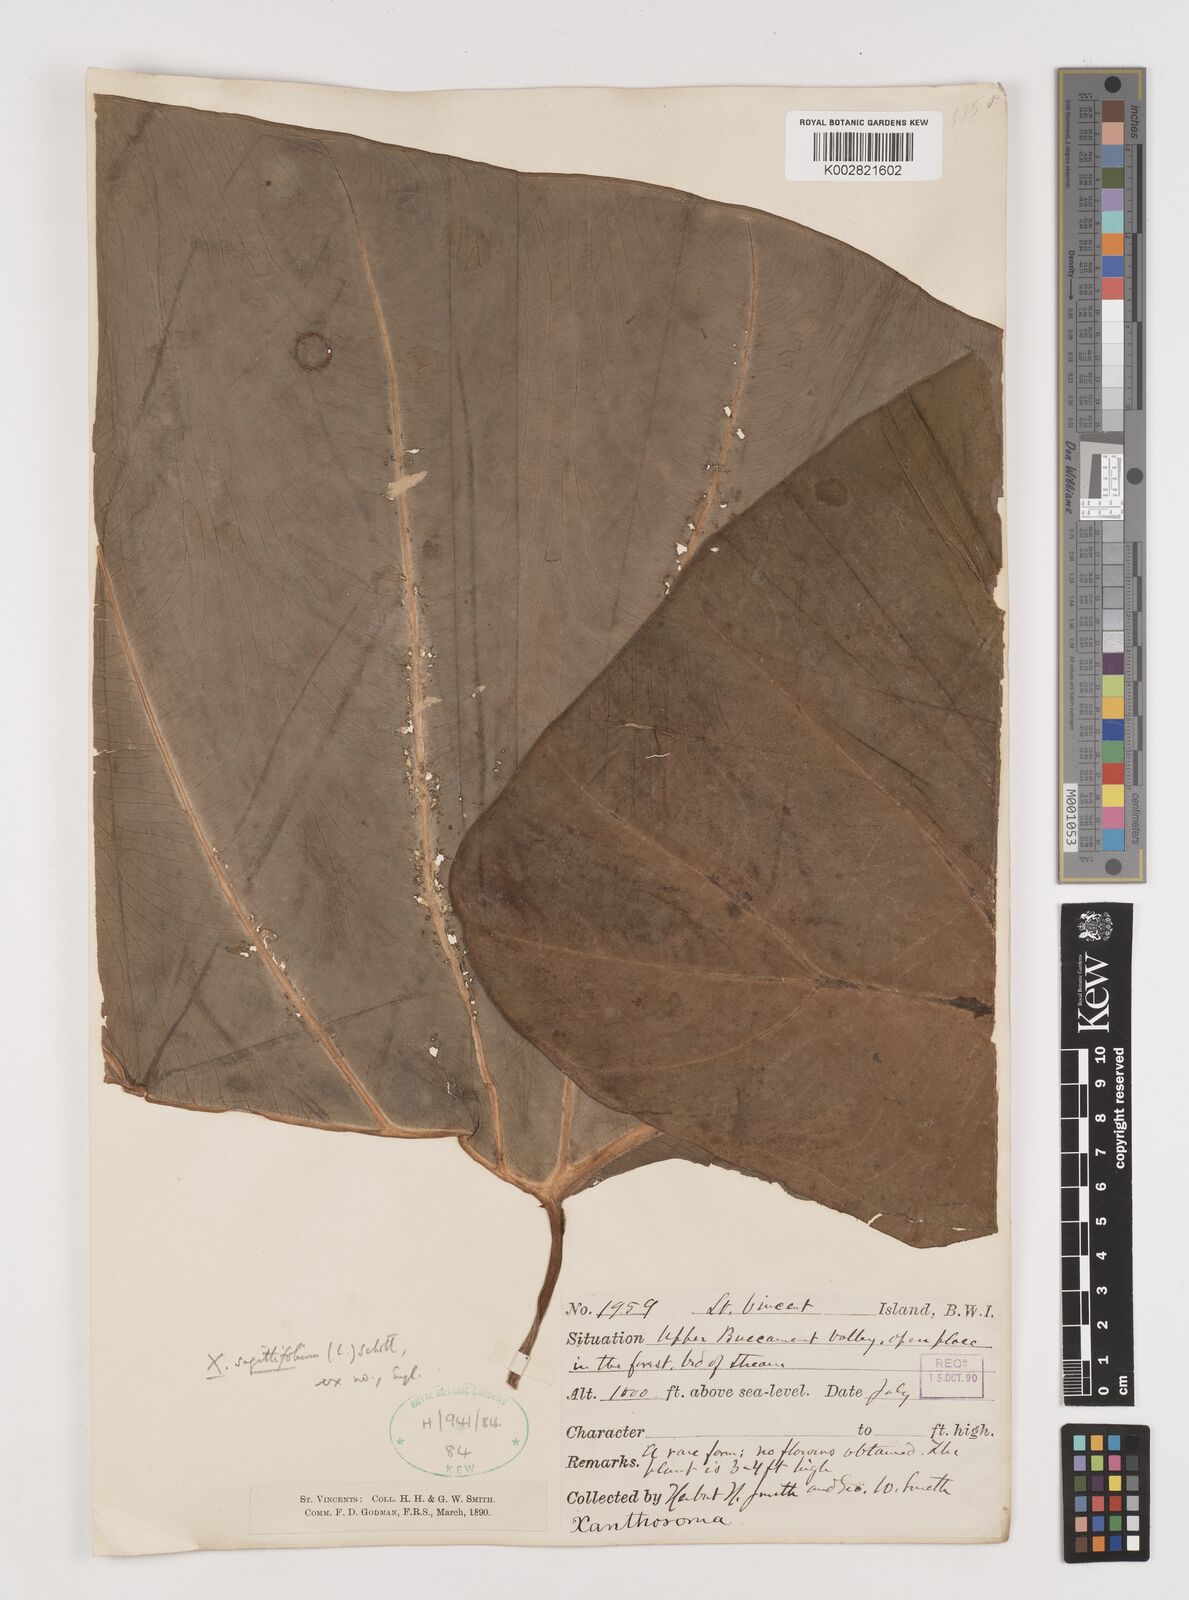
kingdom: Plantae
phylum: Tracheophyta
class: Liliopsida
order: Alismatales
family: Araceae
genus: Xanthosoma
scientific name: Xanthosoma sagittifolium
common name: Arrowleaf elephant's ear
